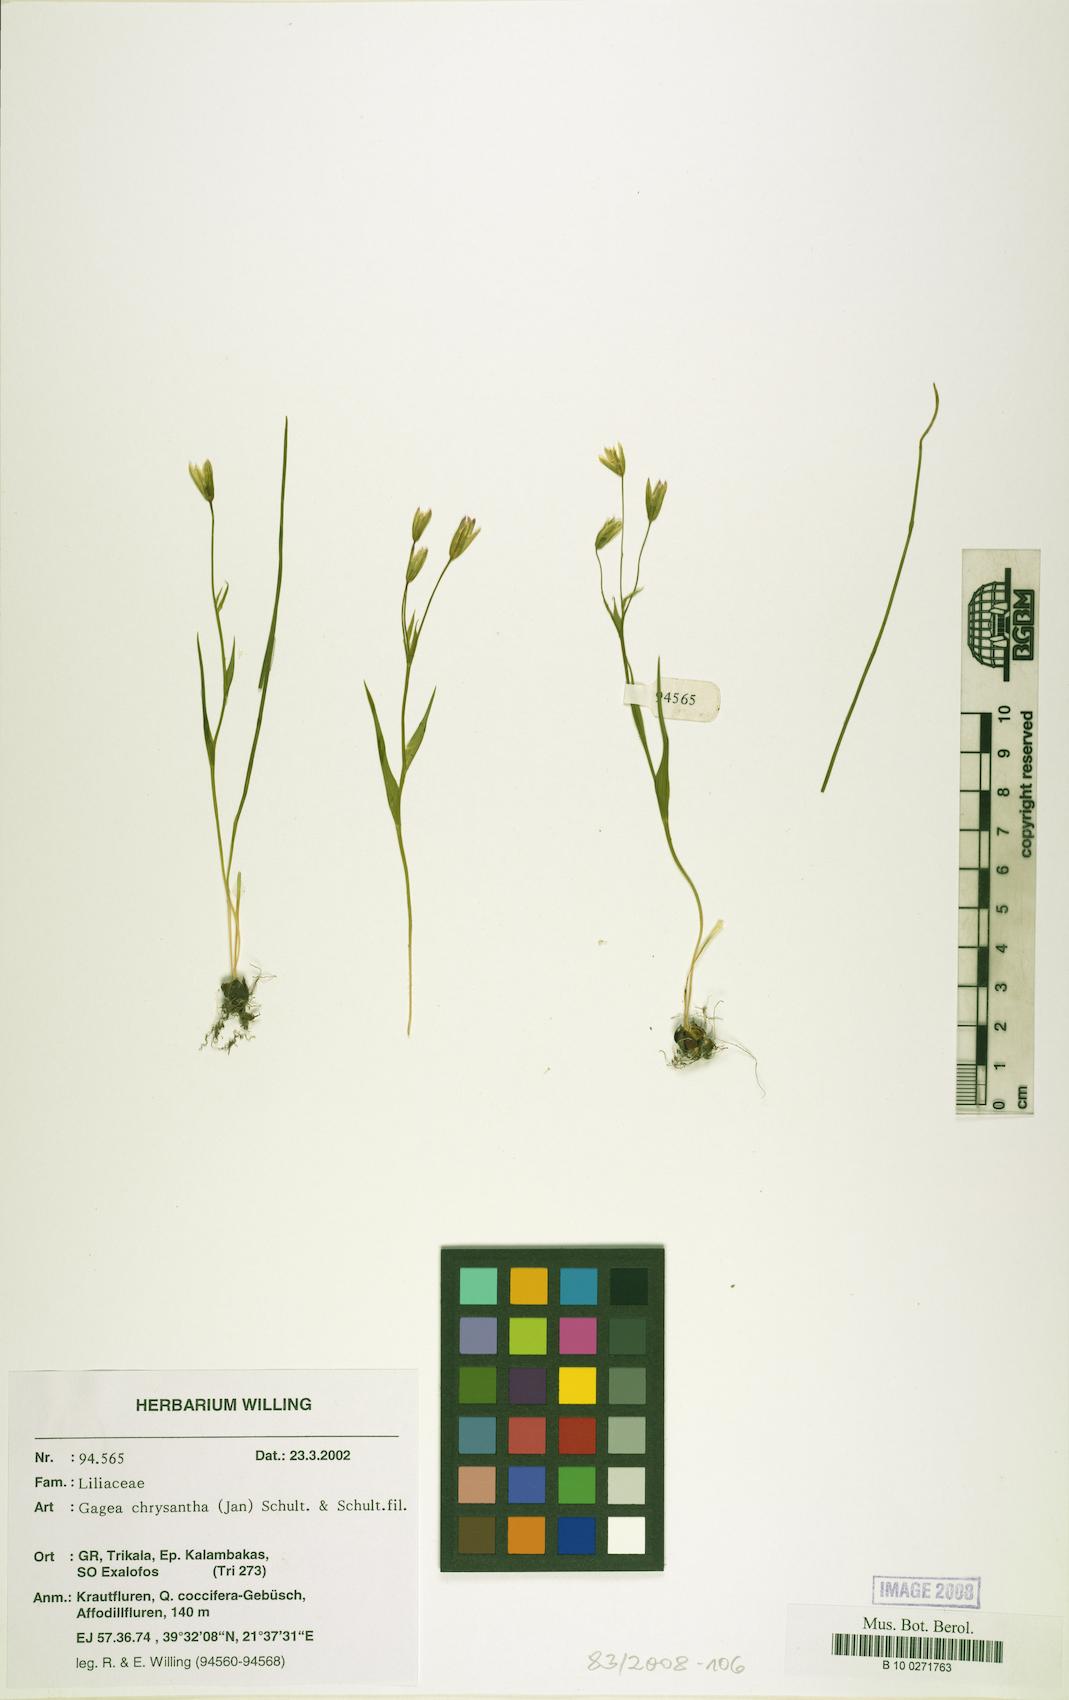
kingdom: Plantae
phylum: Tracheophyta
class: Liliopsida
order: Liliales
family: Liliaceae
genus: Gagea
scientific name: Gagea chrysantha
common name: Golden gagea
